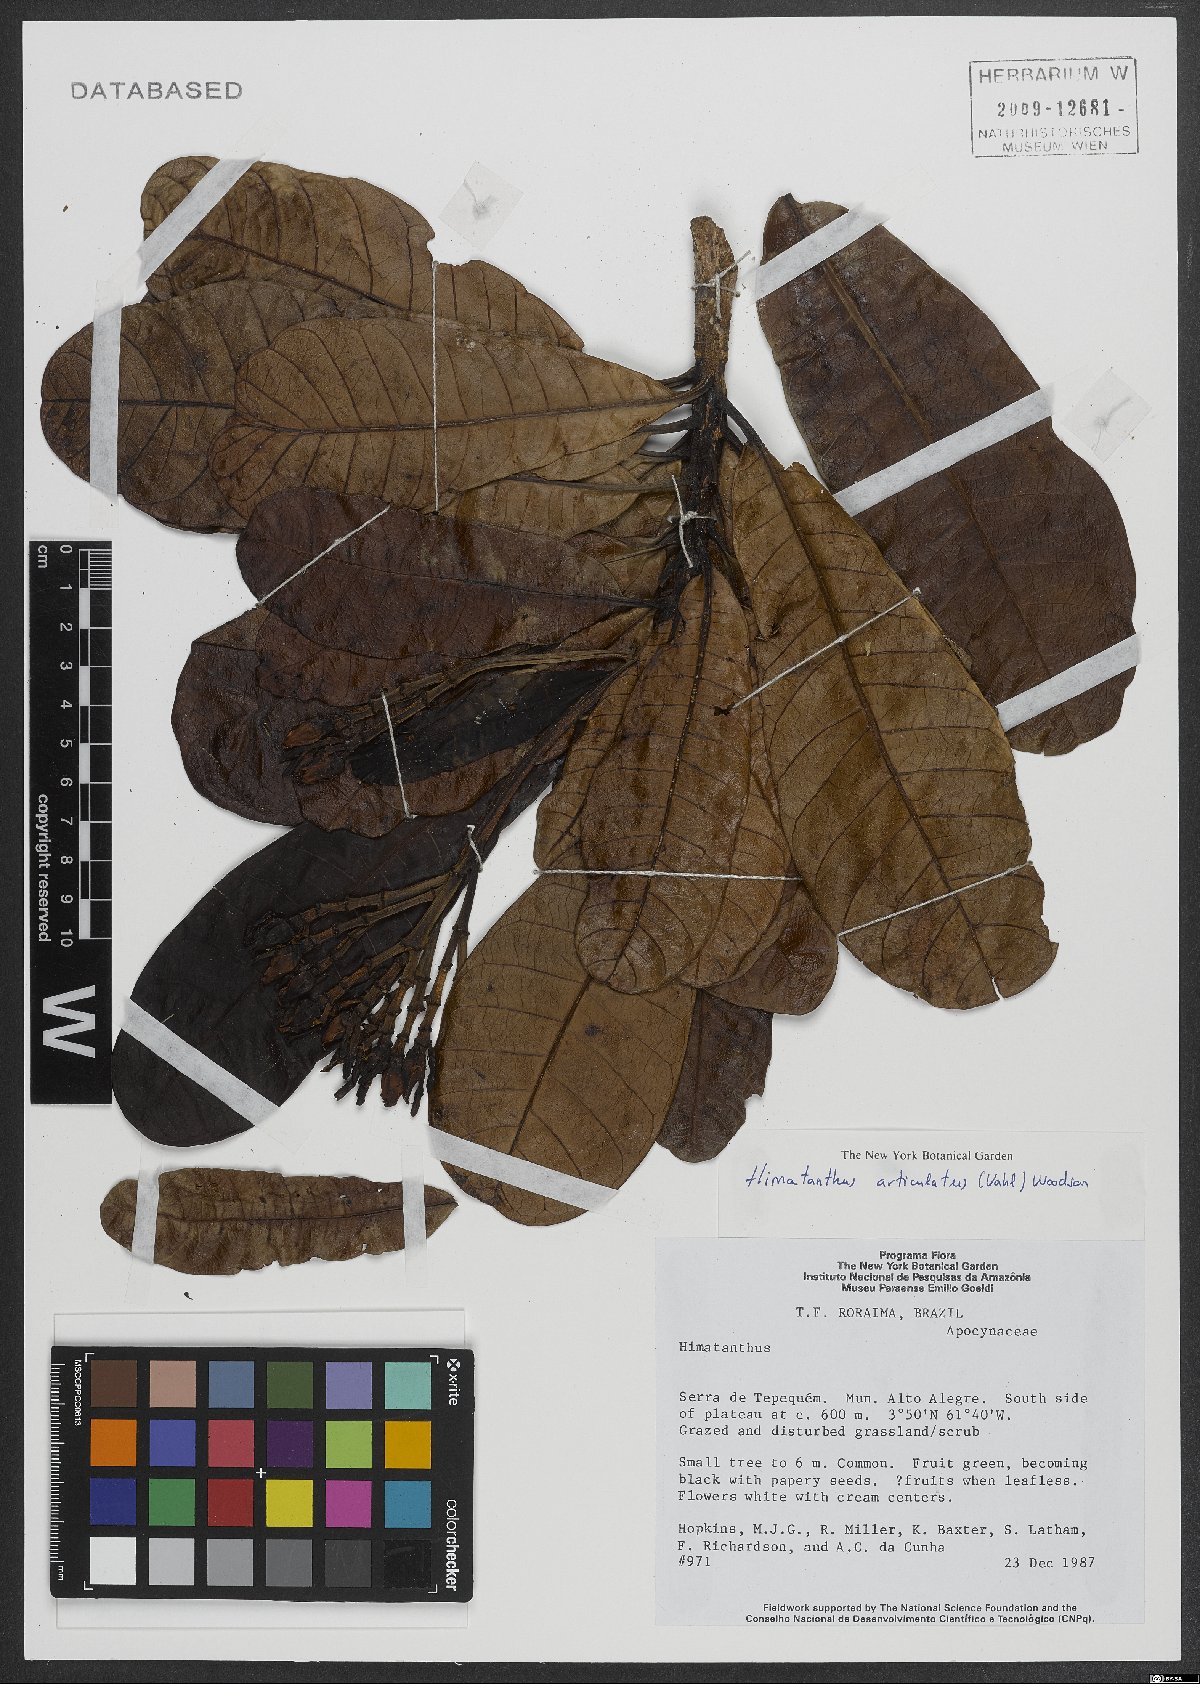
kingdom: Plantae
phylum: Tracheophyta
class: Magnoliopsida
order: Gentianales
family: Apocynaceae
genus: Himatanthus
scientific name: Himatanthus articulatus
